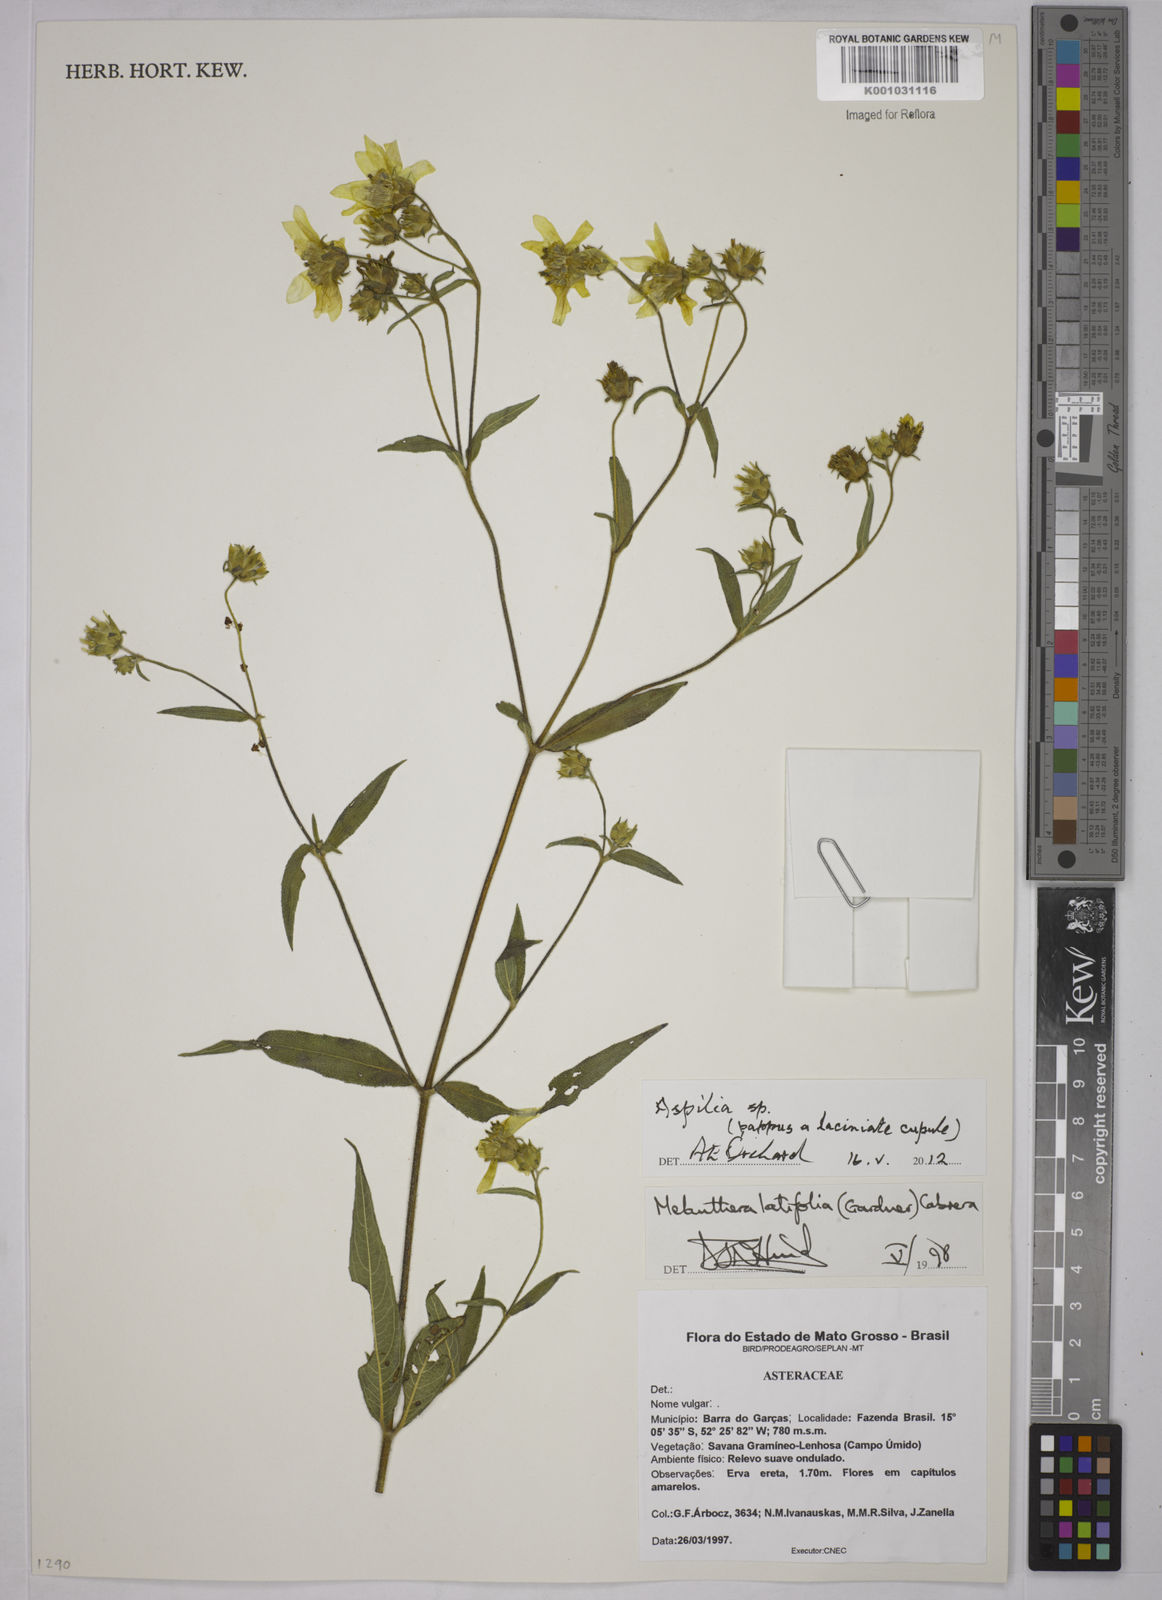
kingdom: Plantae
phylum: Tracheophyta
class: Magnoliopsida
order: Asterales
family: Asteraceae
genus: Aspilia
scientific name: Aspilia
